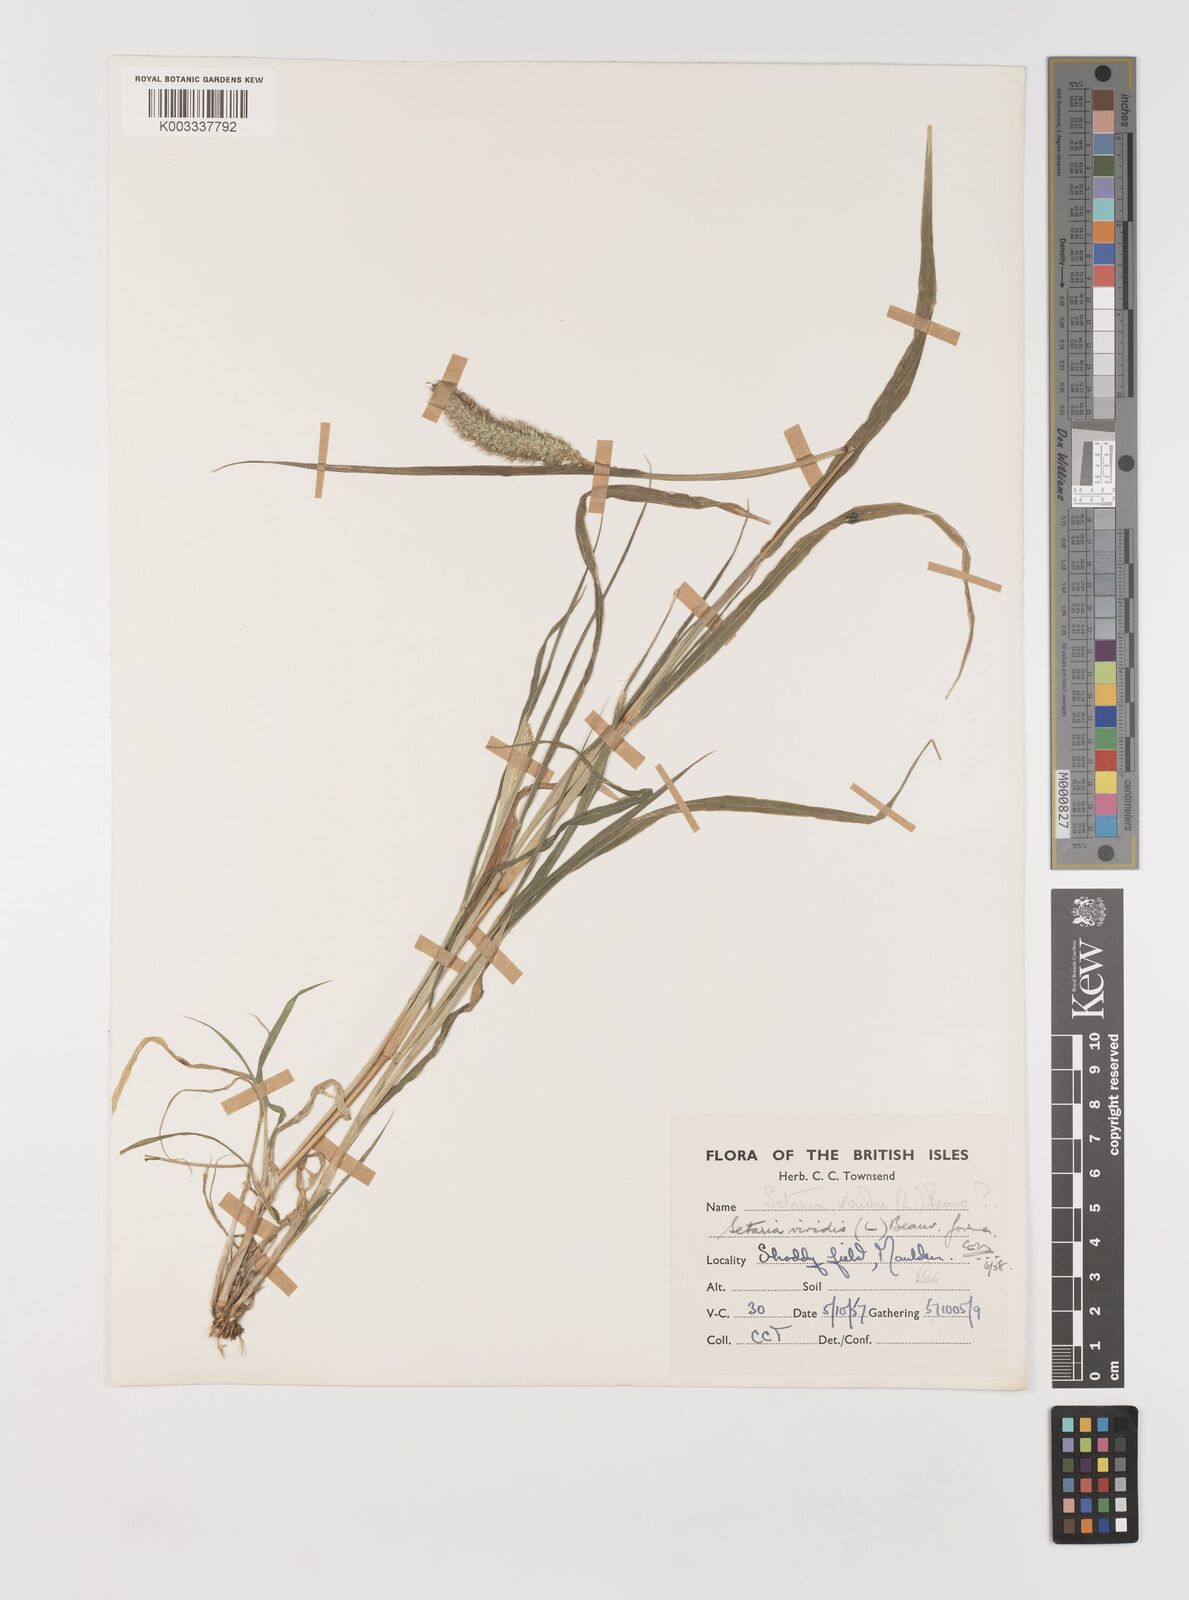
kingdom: Plantae
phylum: Tracheophyta
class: Liliopsida
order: Poales
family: Poaceae
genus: Setaria
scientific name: Setaria viridis
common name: Green bristlegrass
